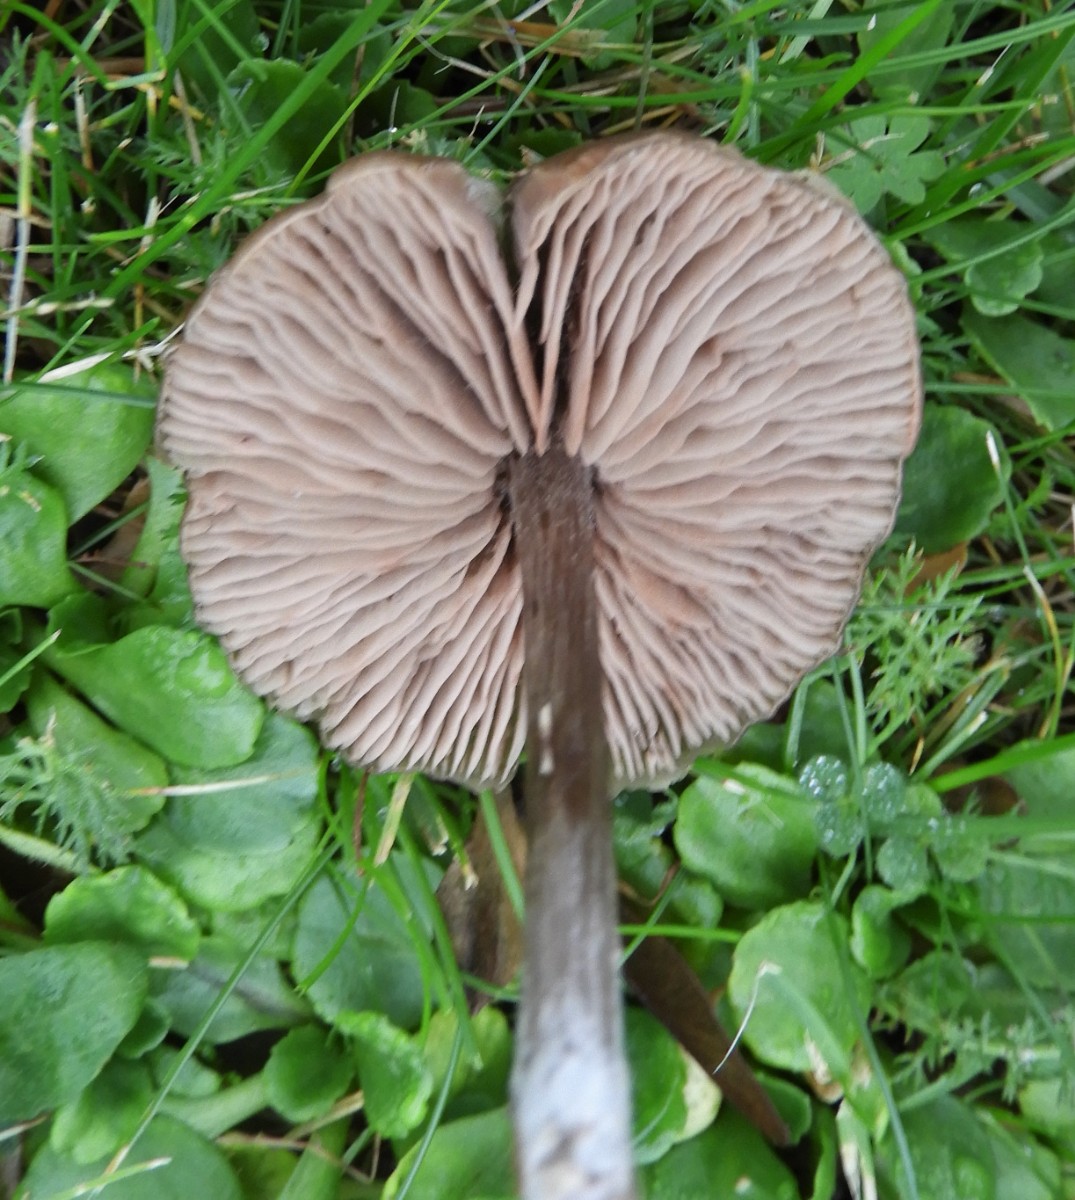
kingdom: Fungi
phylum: Basidiomycota
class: Agaricomycetes
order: Agaricales
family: Entolomataceae
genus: Entoloma
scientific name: Entoloma sericeum
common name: silkeglinsende rødblad
